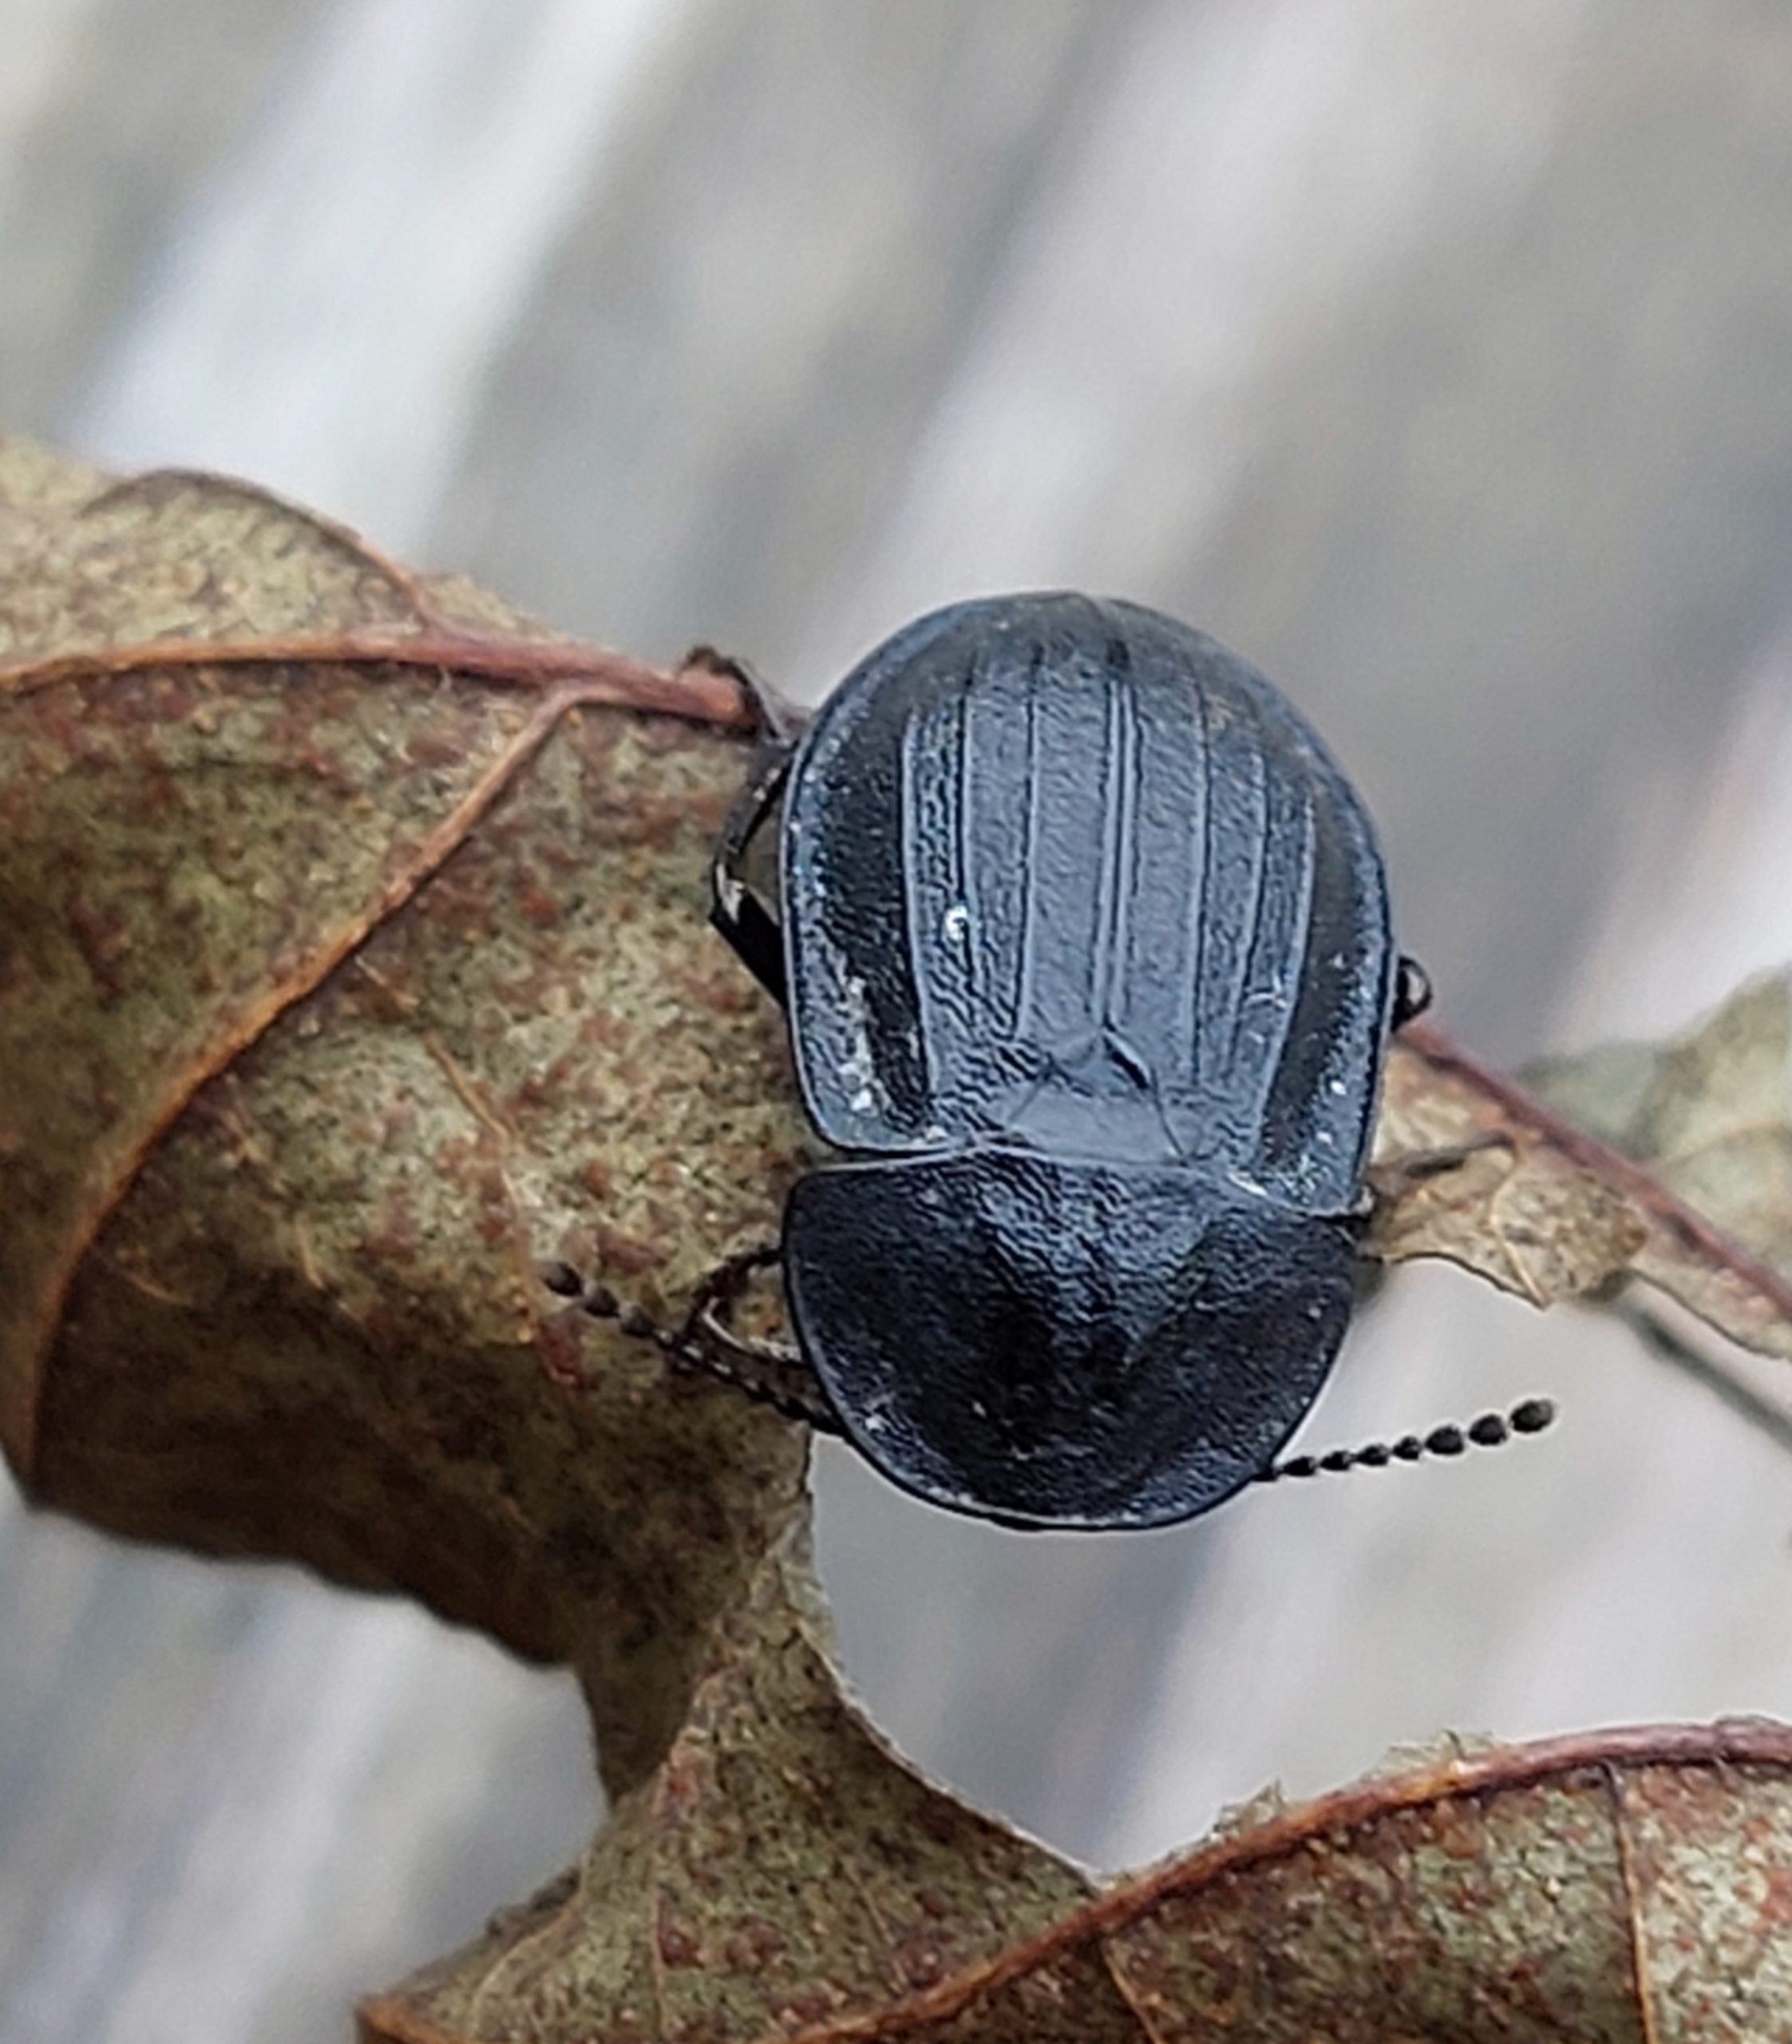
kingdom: Animalia
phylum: Arthropoda
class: Insecta
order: Coleoptera
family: Staphylinidae
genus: Silpha
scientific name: Silpha atrata
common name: Snegleådselbille
